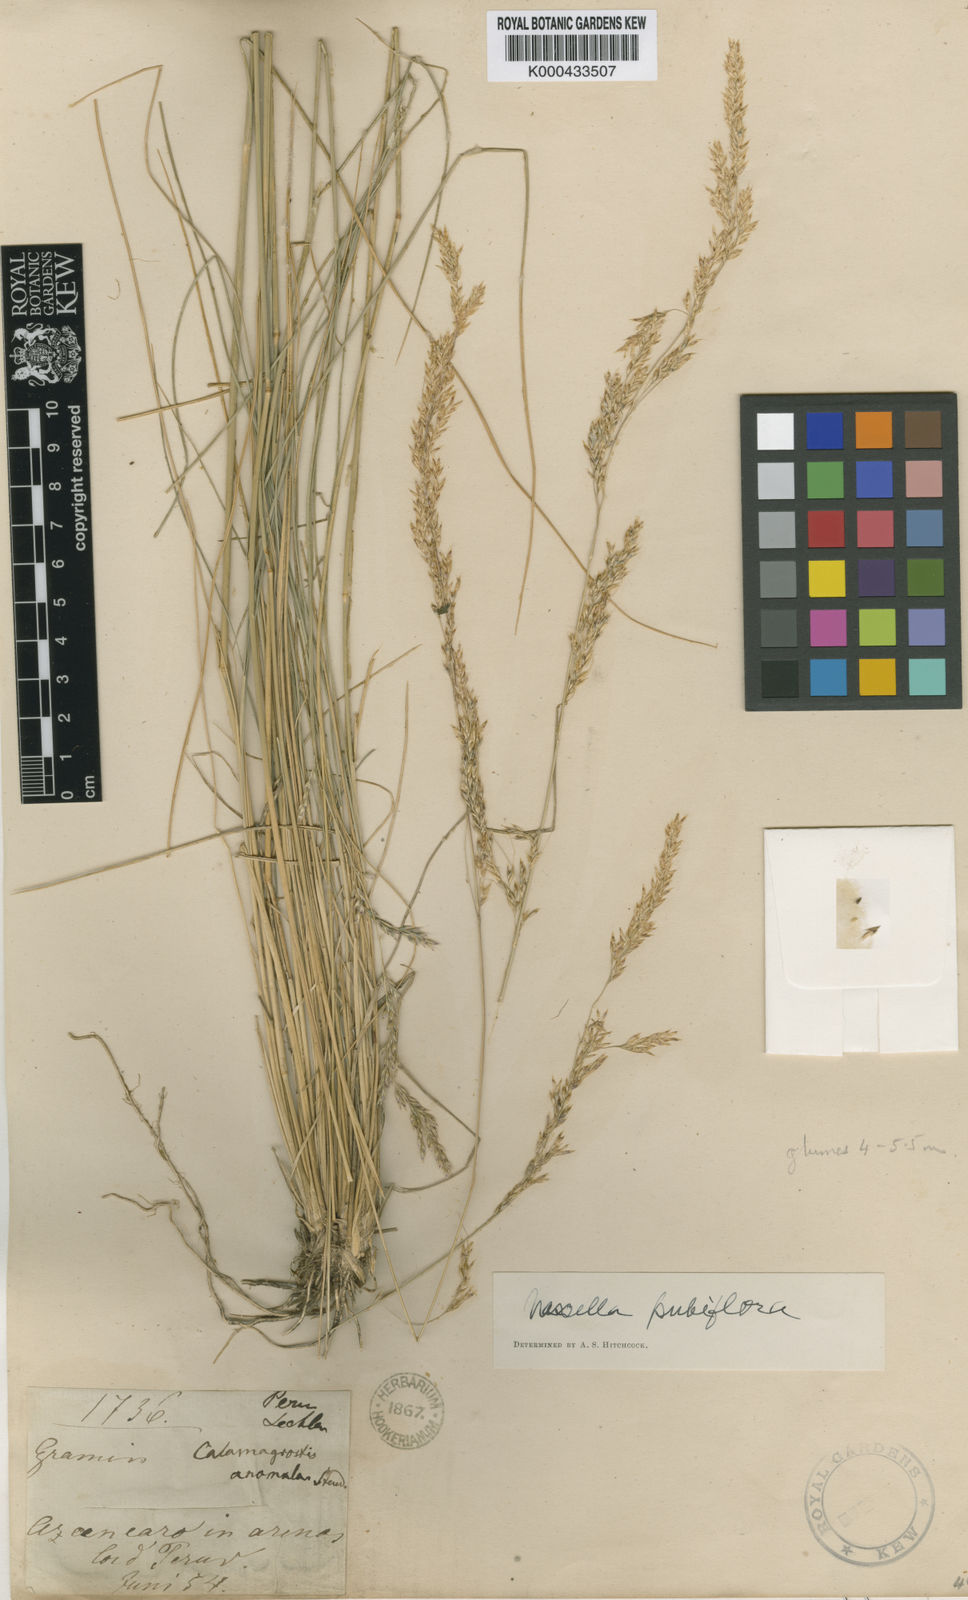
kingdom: Plantae
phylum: Tracheophyta
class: Liliopsida
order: Poales
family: Poaceae
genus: Nassella
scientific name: Nassella
